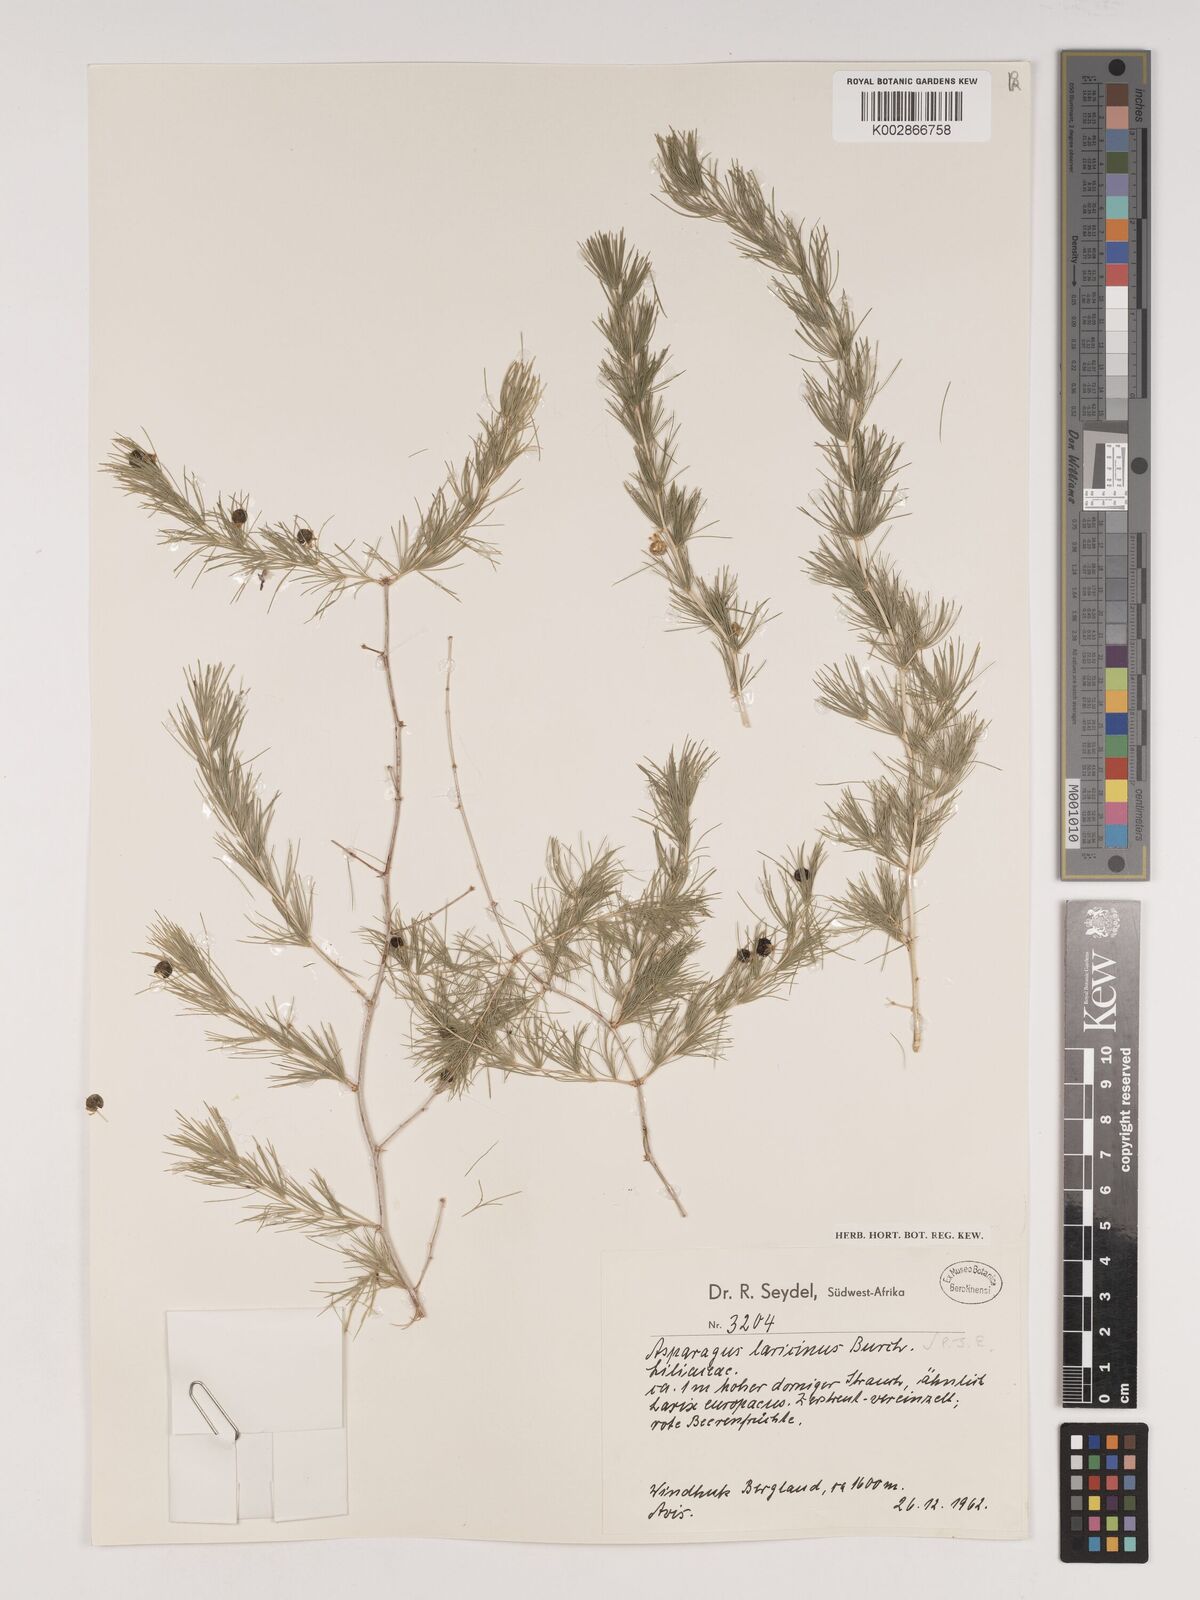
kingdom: Plantae
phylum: Tracheophyta
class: Liliopsida
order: Asparagales
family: Asparagaceae
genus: Asparagus
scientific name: Asparagus laricinus
